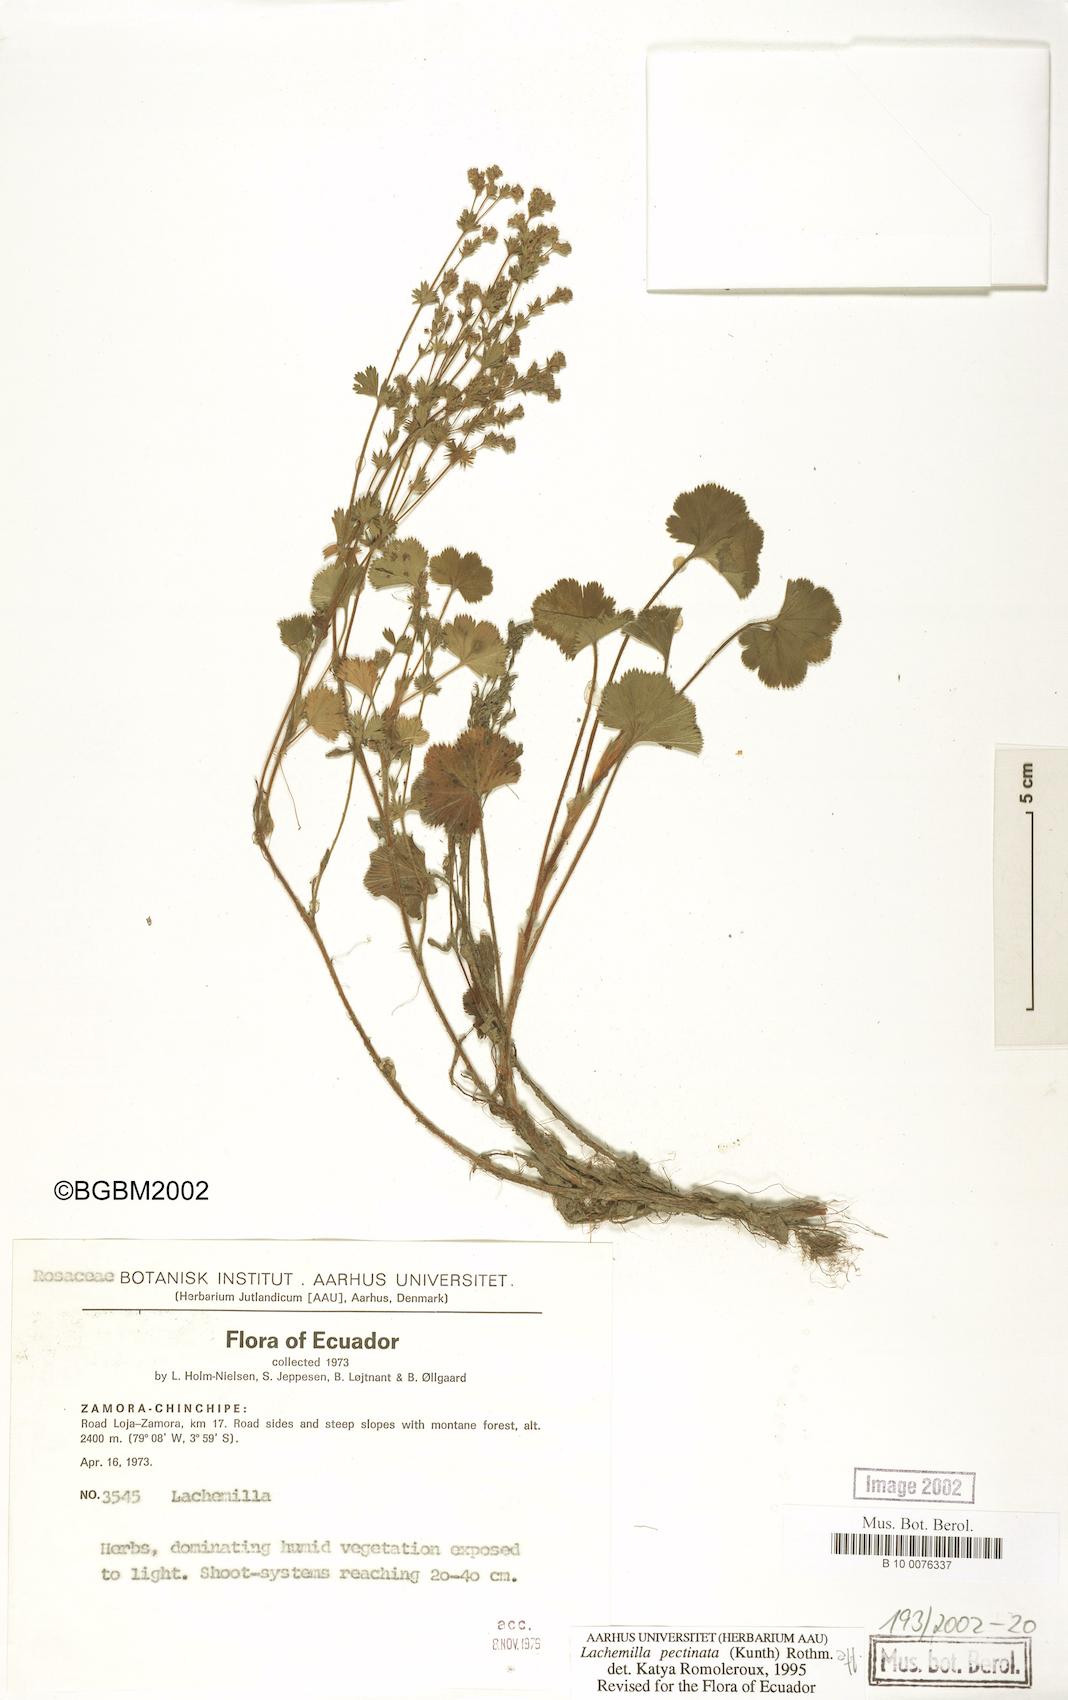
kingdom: Plantae
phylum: Tracheophyta
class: Magnoliopsida
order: Rosales
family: Rosaceae
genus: Lachemilla
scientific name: Lachemilla pectinata
